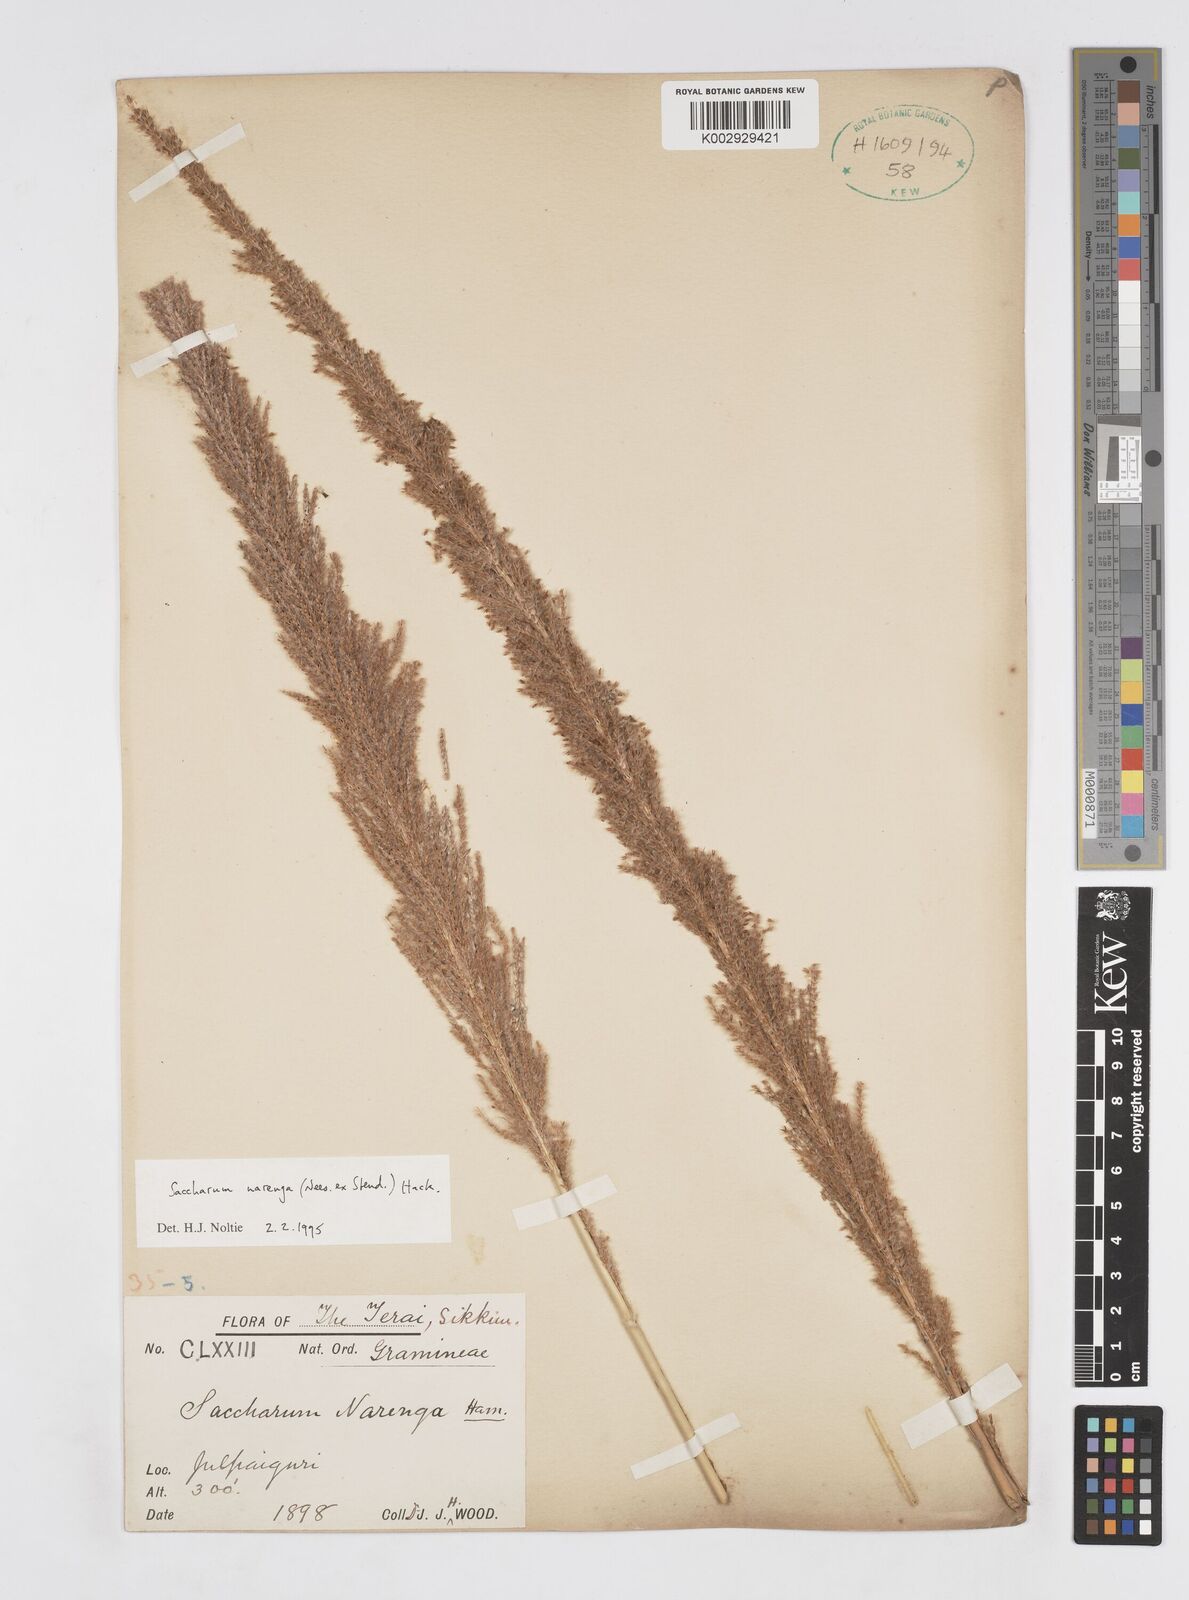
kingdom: Plantae
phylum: Tracheophyta
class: Liliopsida
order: Poales
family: Poaceae
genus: Narenga
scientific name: Narenga porphyrocoma
